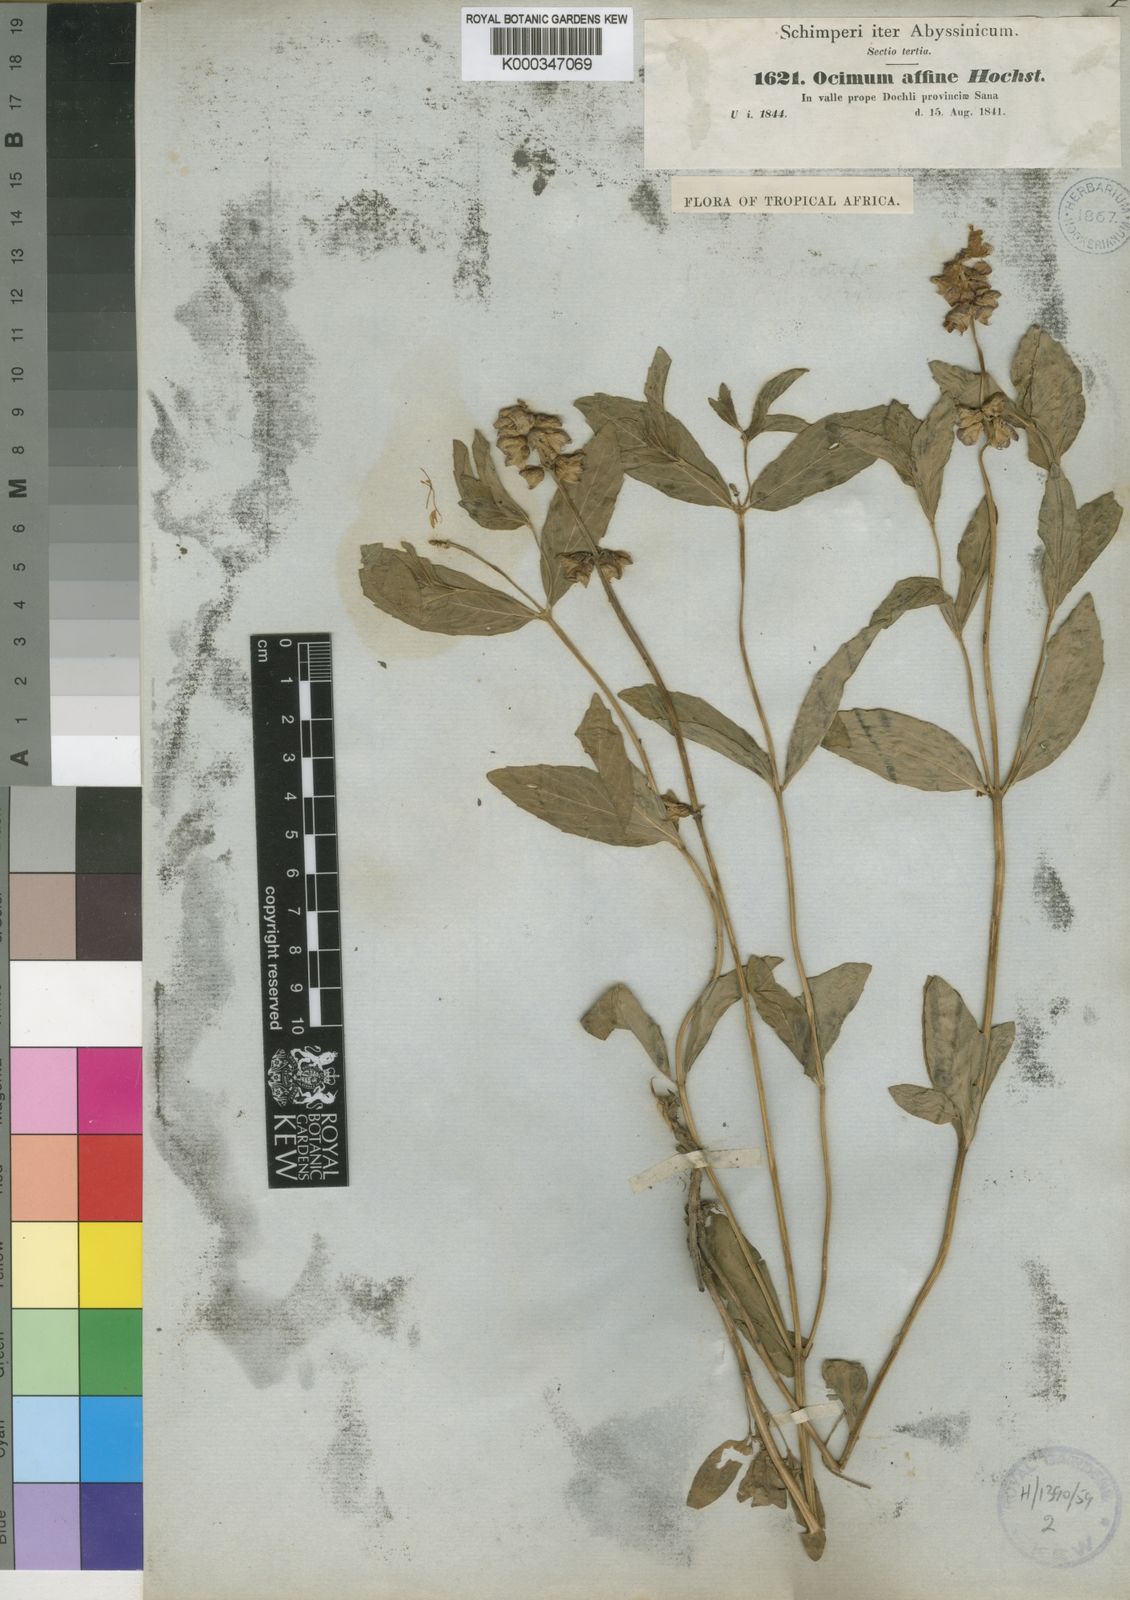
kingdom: Plantae
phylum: Tracheophyta
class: Magnoliopsida
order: Lamiales
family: Lamiaceae
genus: Ocimum
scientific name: Ocimum obovatum
